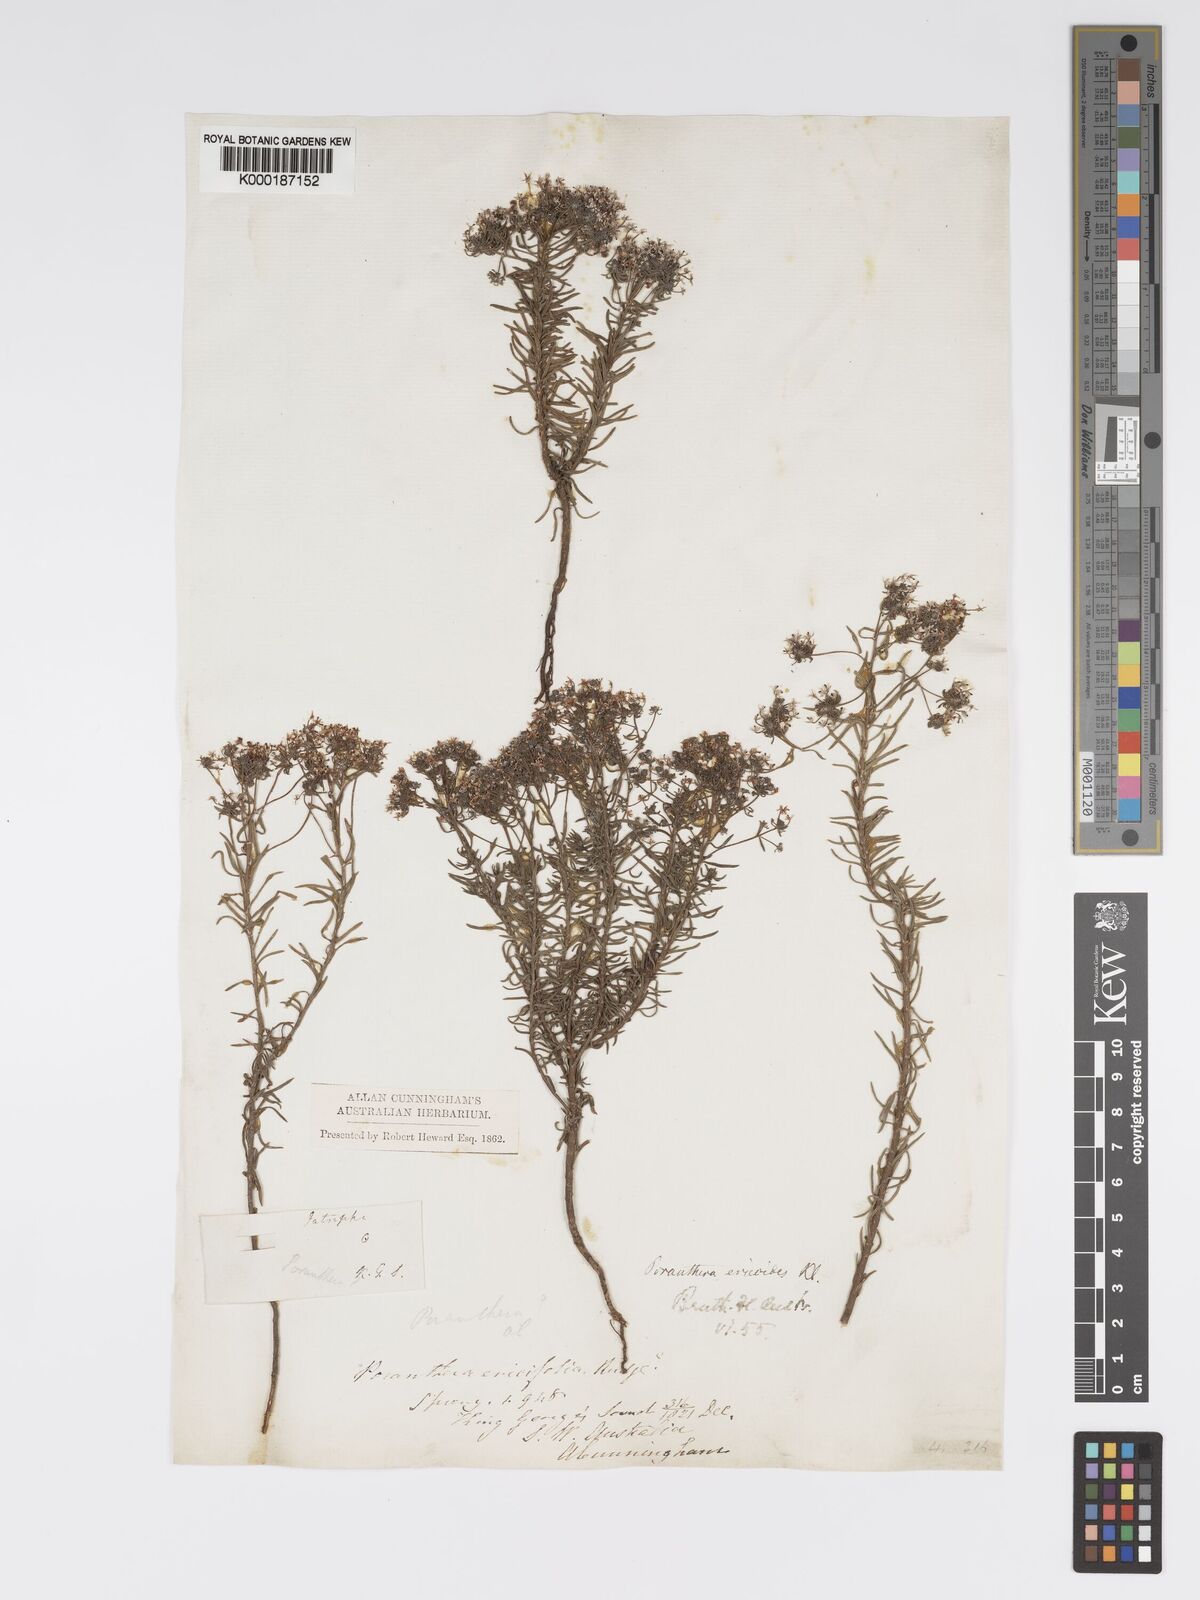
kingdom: Plantae
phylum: Tracheophyta
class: Magnoliopsida
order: Malpighiales
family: Phyllanthaceae
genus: Poranthera
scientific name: Poranthera ericoides
